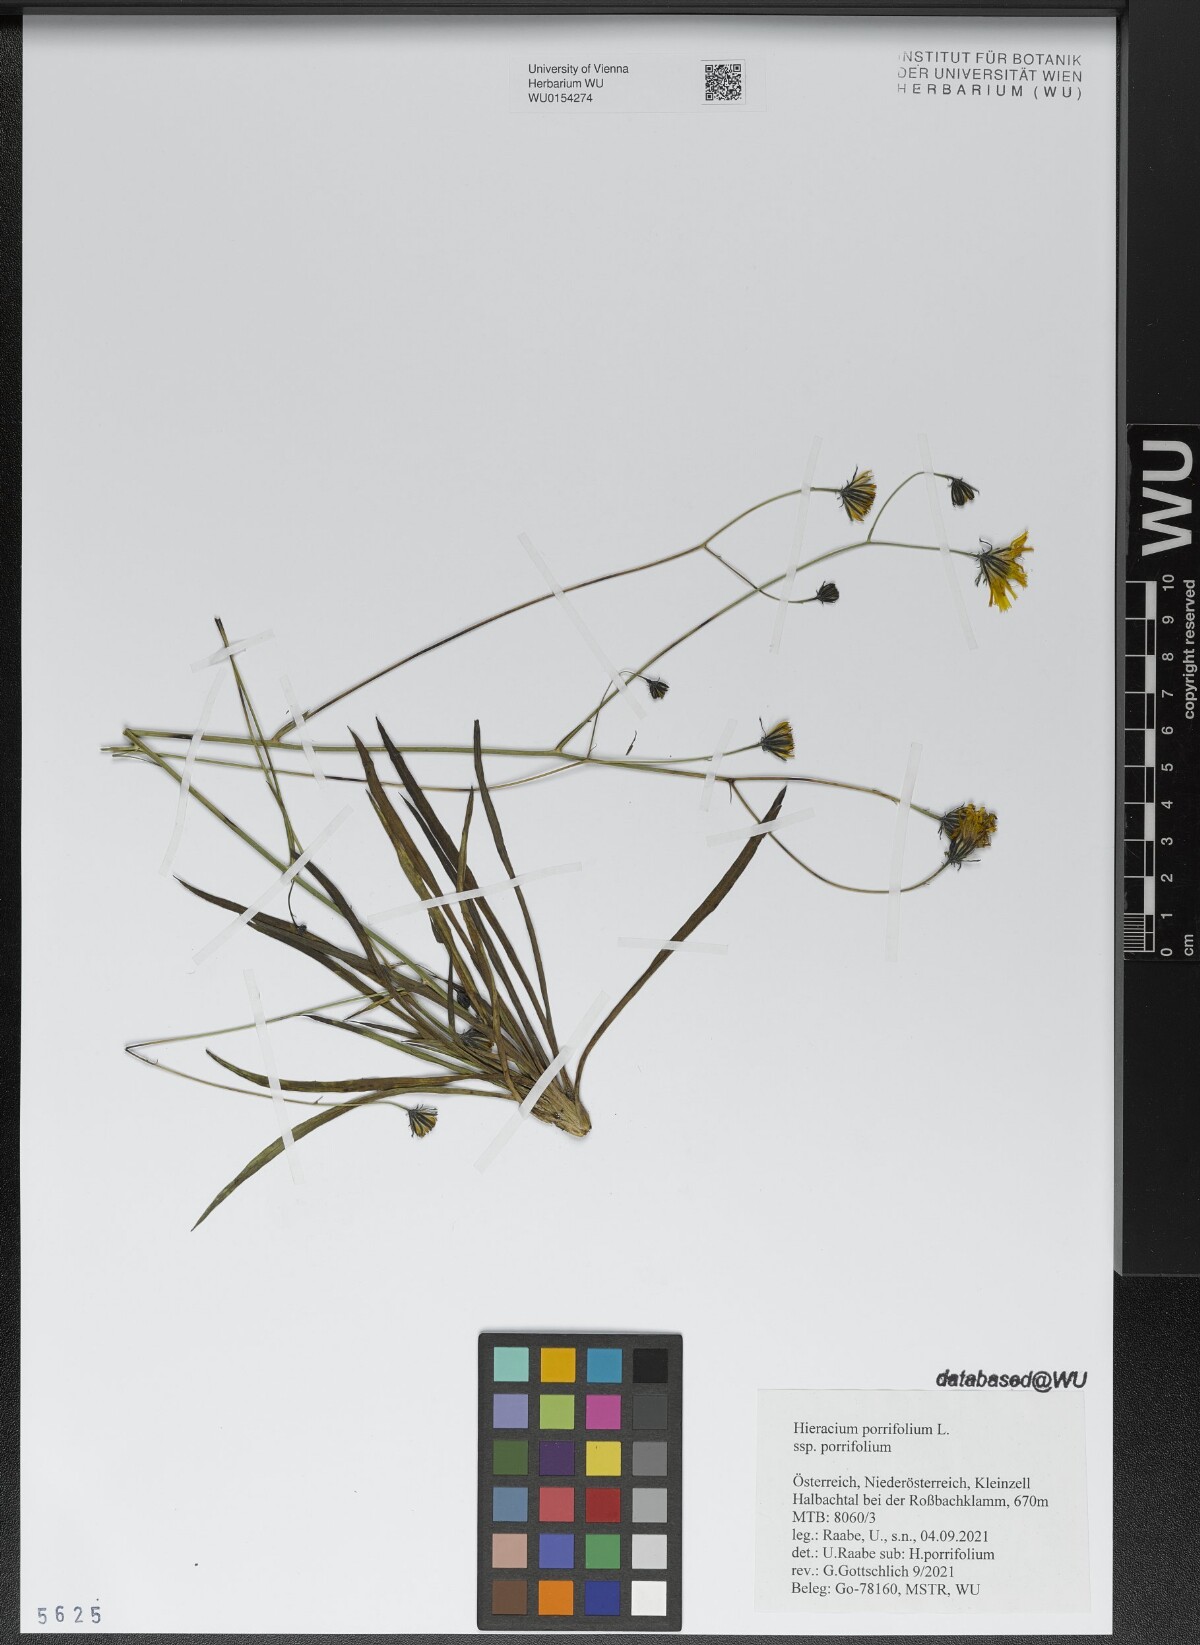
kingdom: Plantae
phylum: Tracheophyta
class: Magnoliopsida
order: Asterales
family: Asteraceae
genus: Hieracium
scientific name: Hieracium porrifolium
